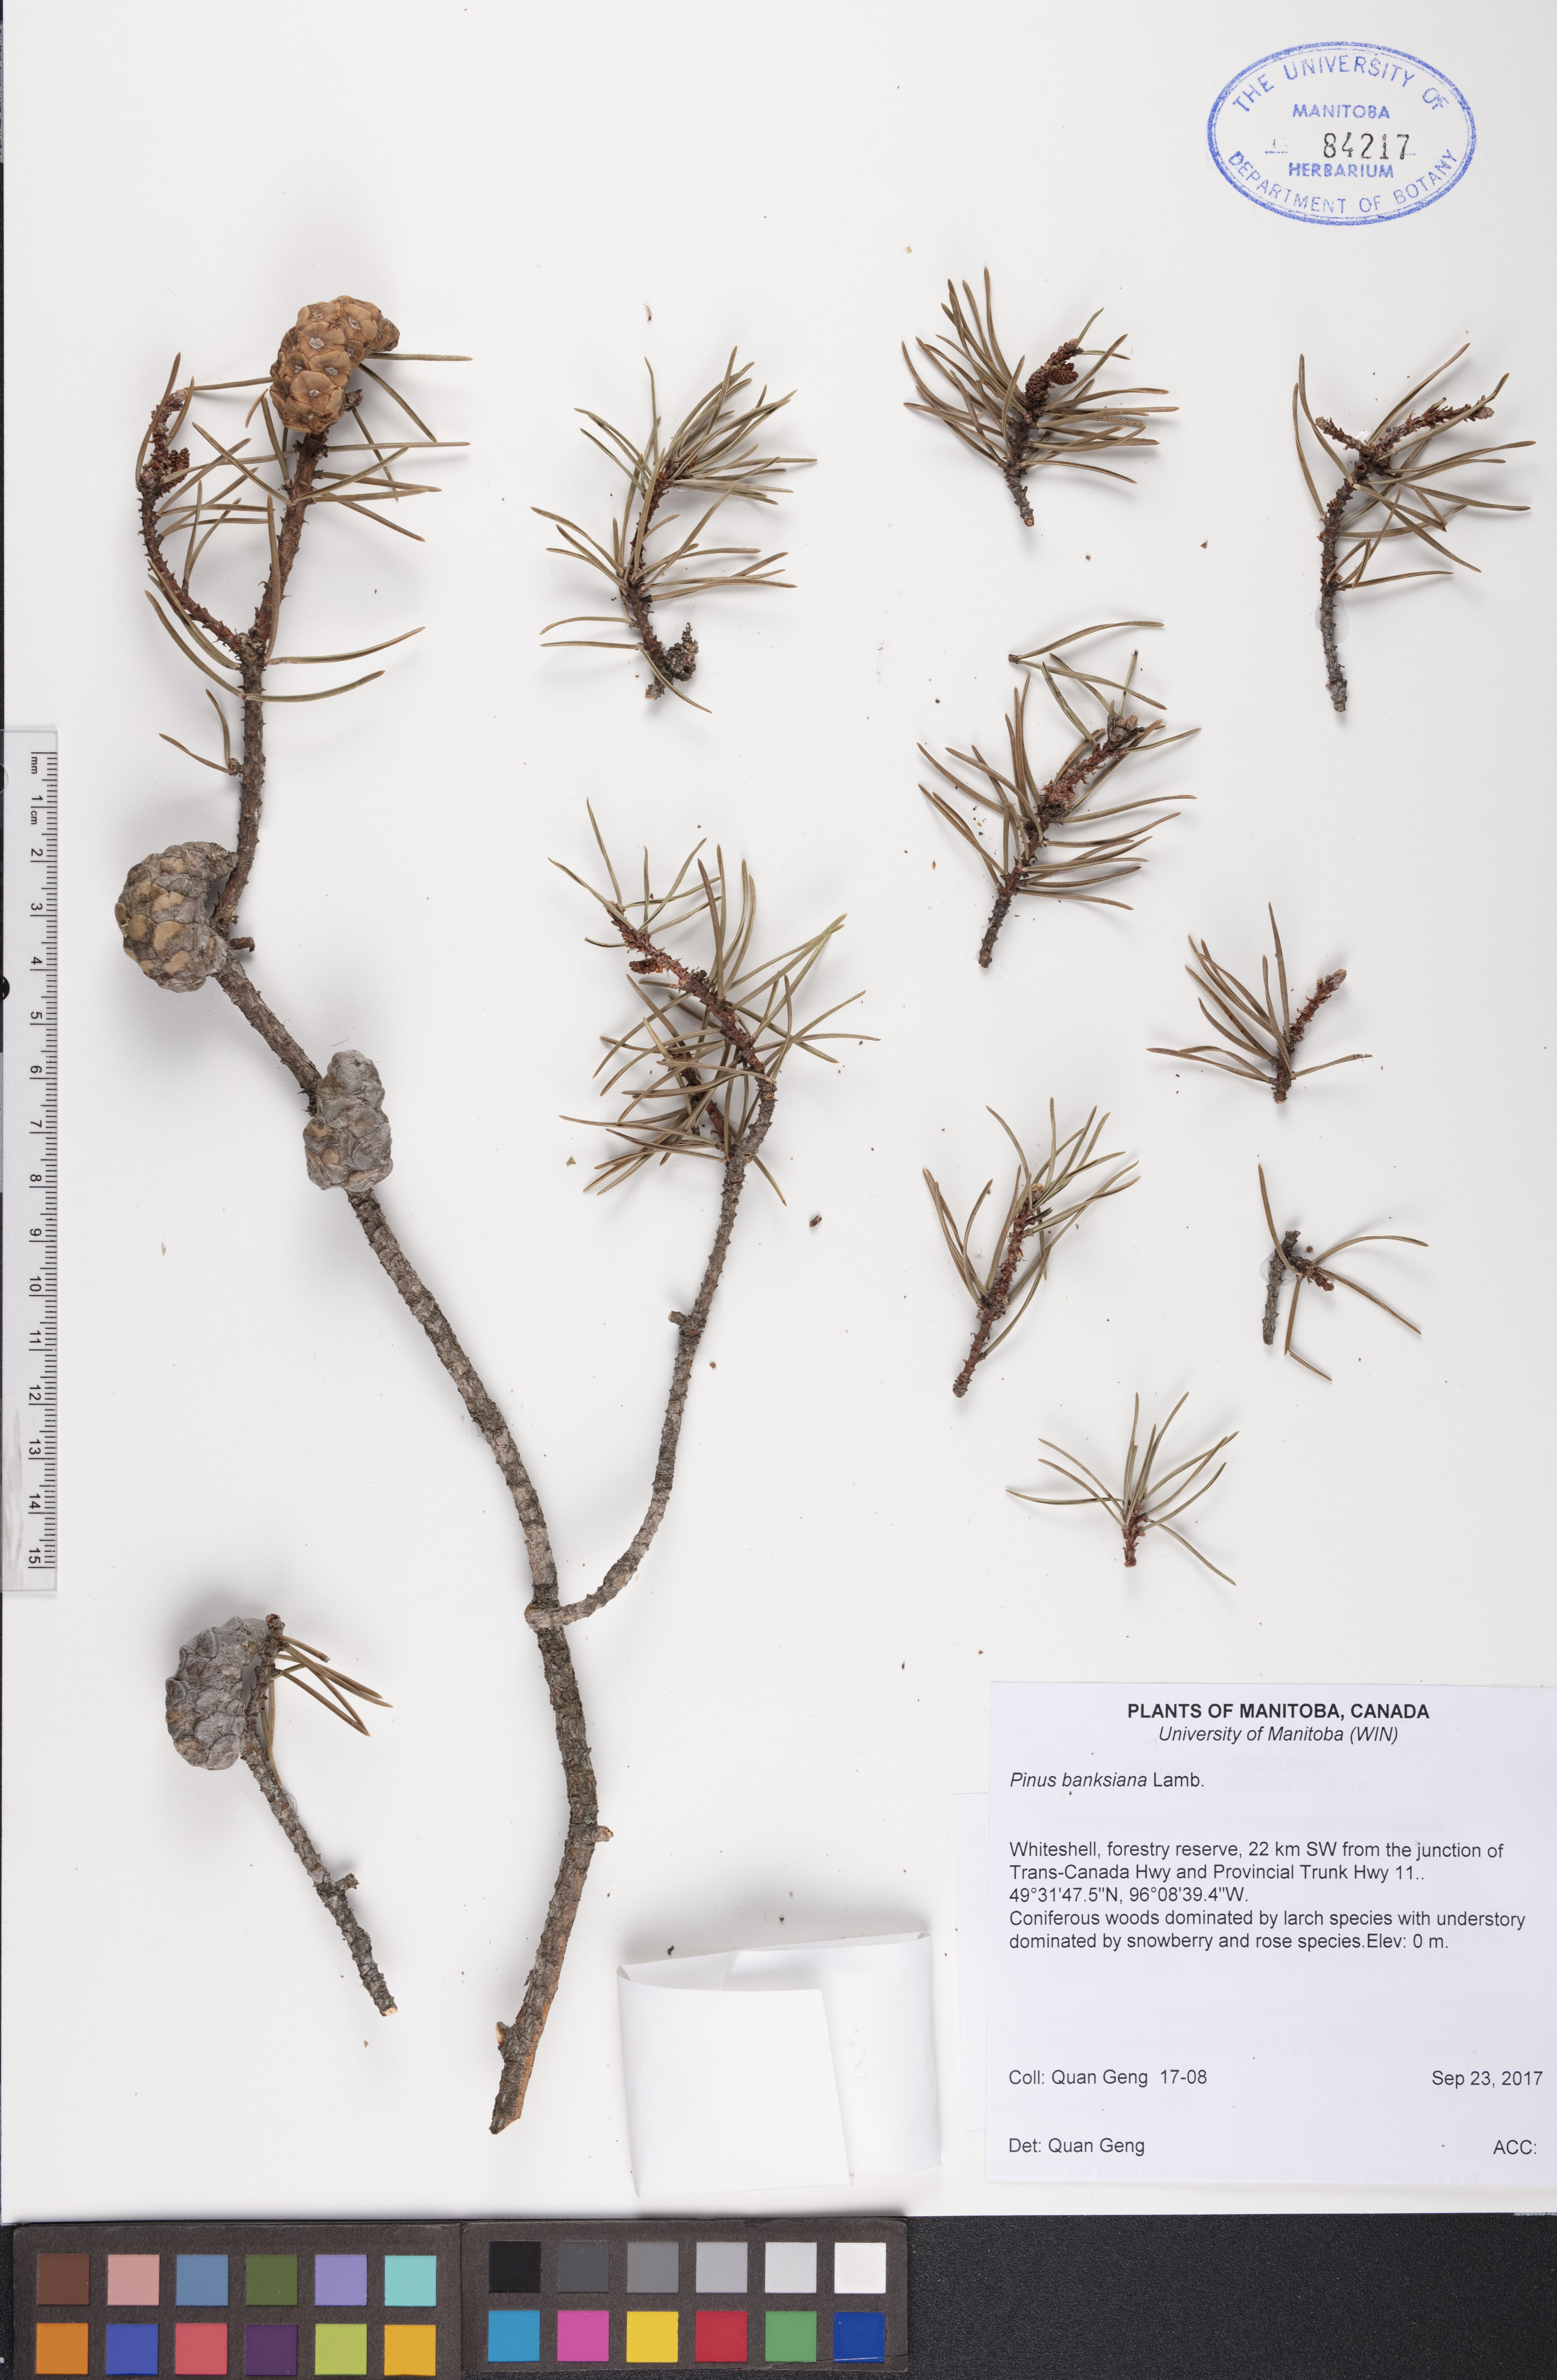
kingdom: Plantae
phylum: Tracheophyta
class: Pinopsida
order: Pinales
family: Pinaceae
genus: Pinus
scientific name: Pinus banksiana
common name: Jack pine
